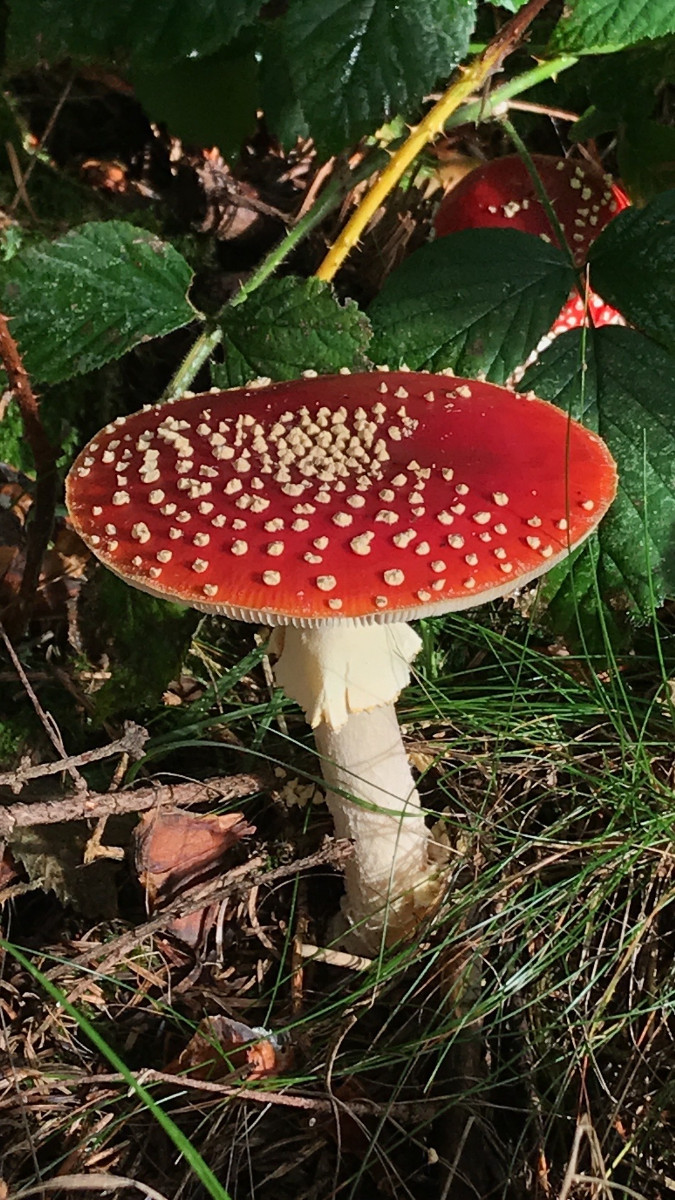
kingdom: Fungi
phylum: Basidiomycota
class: Agaricomycetes
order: Agaricales
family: Amanitaceae
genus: Amanita
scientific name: Amanita muscaria
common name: rød fluesvamp
